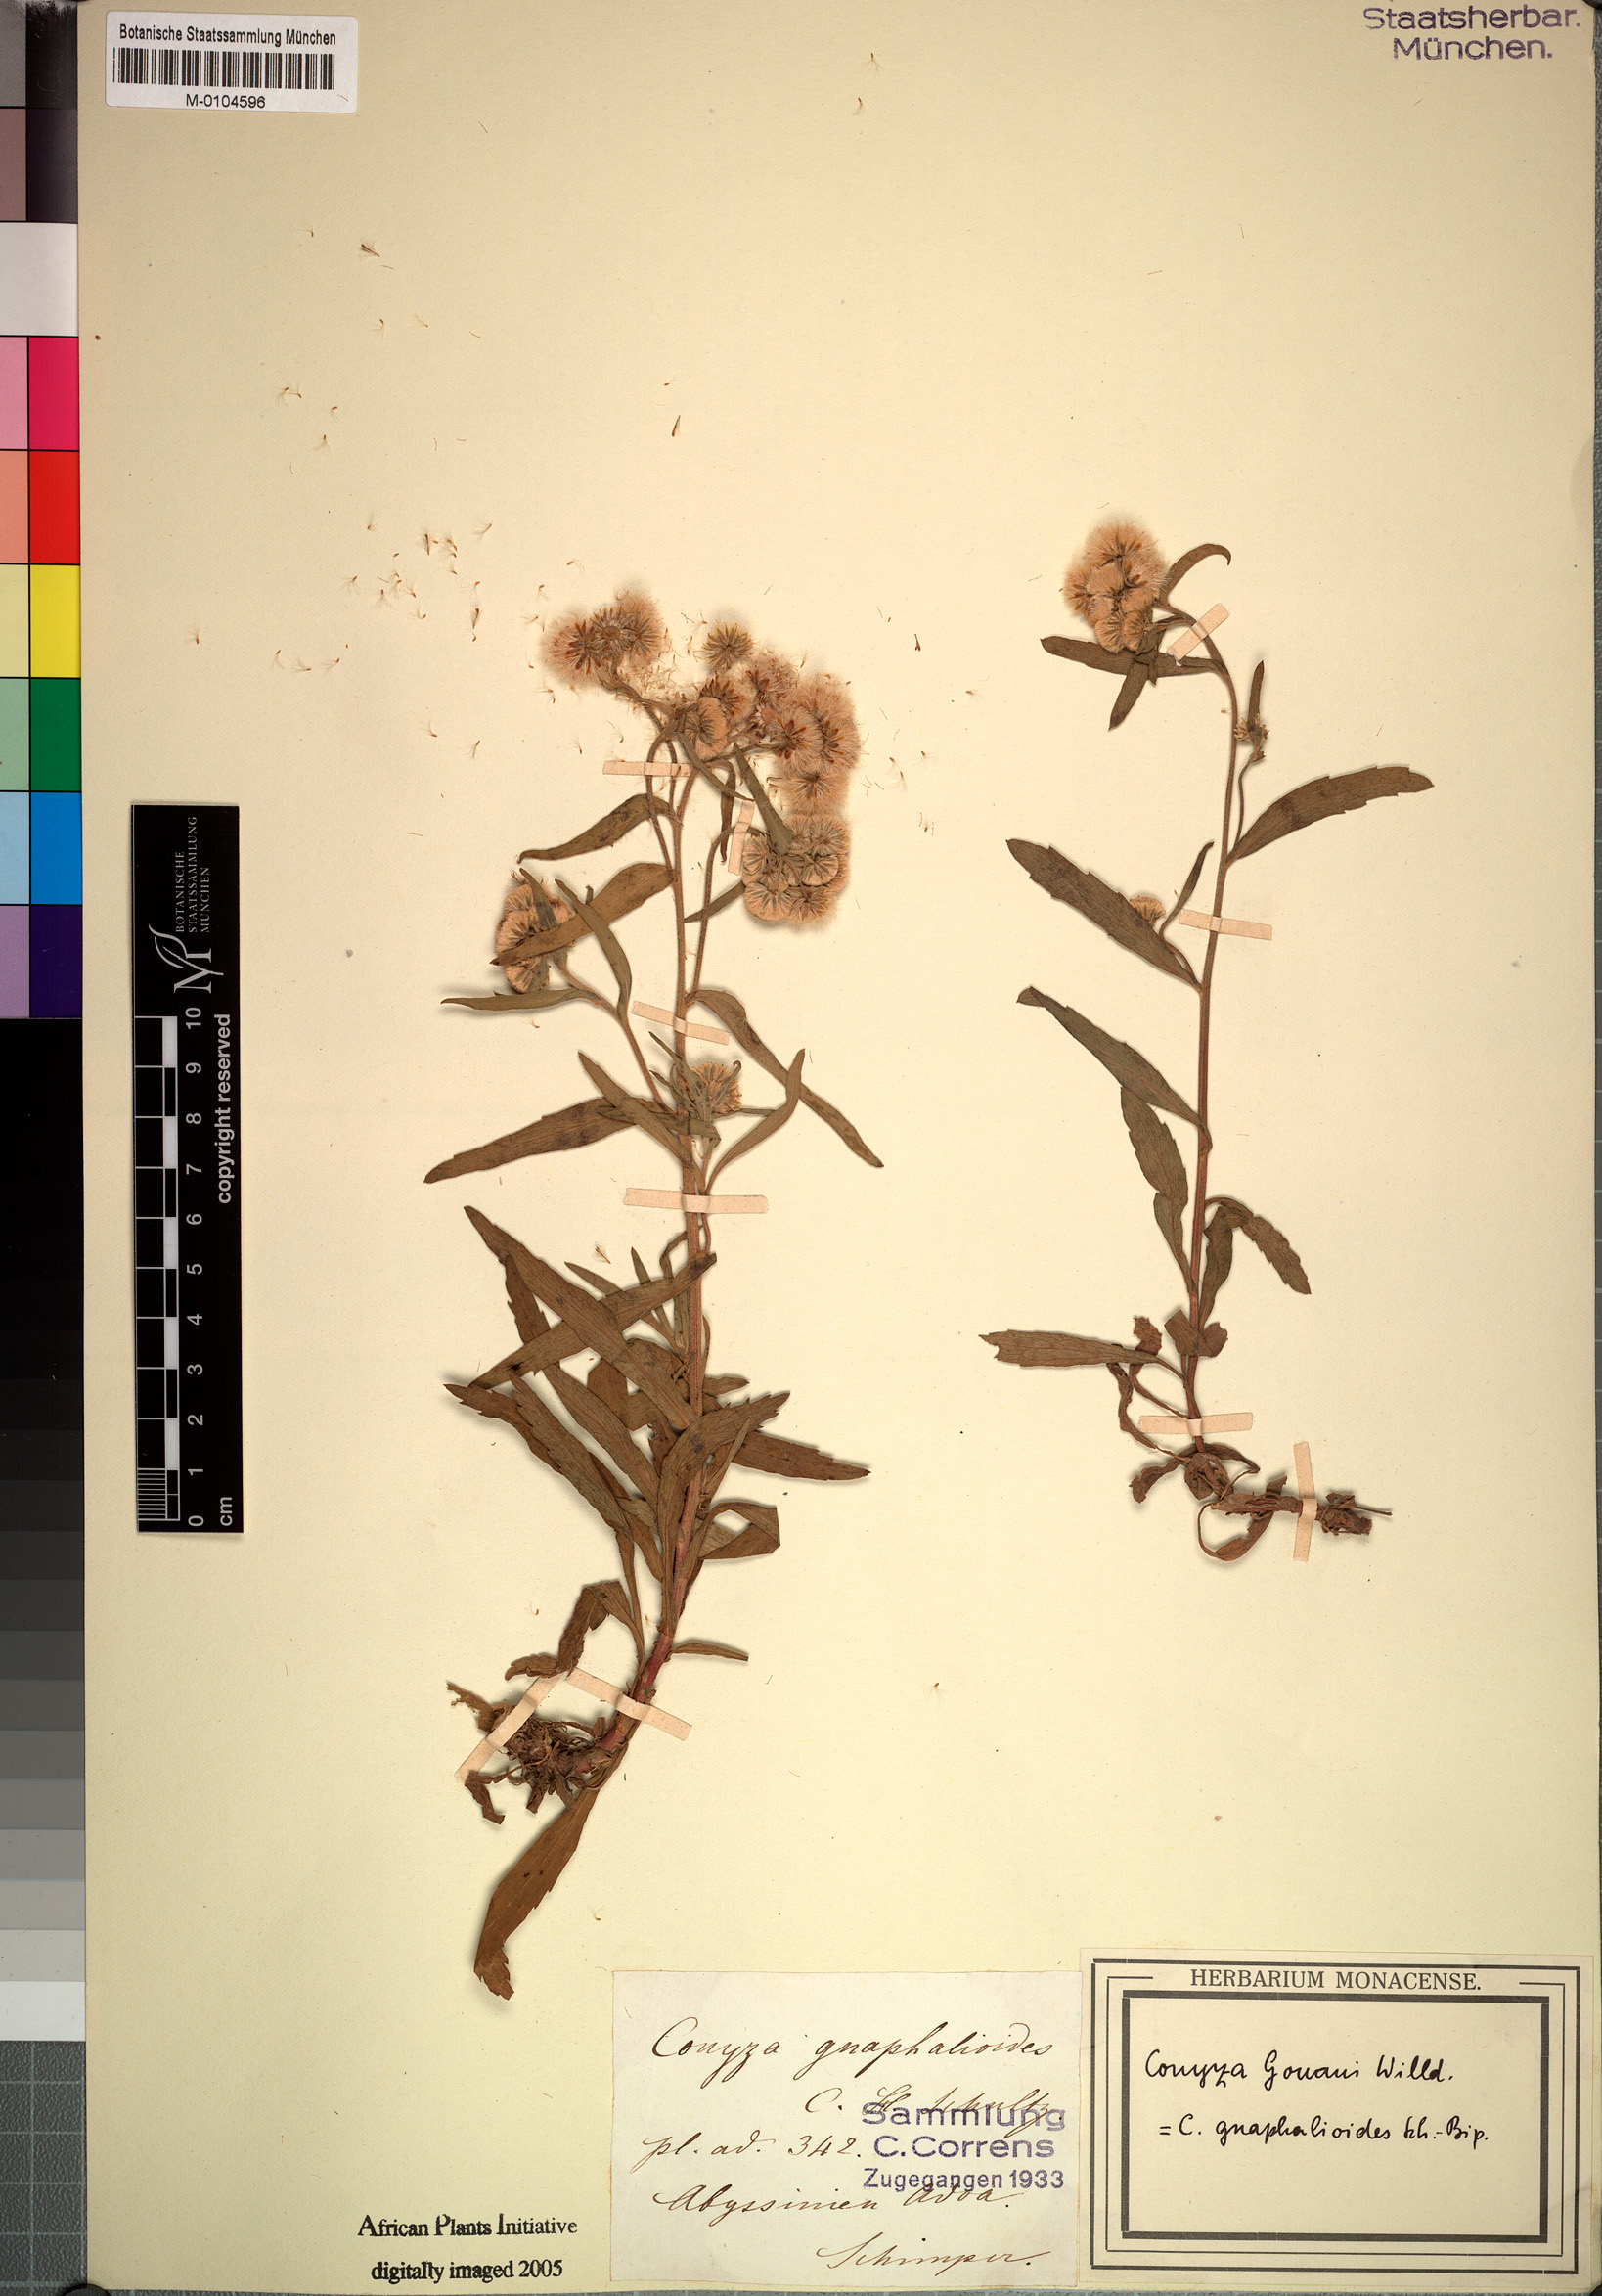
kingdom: Plantae
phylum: Tracheophyta
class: Magnoliopsida
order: Asterales
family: Asteraceae
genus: Eschenbachia
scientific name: Eschenbachia gouanii
